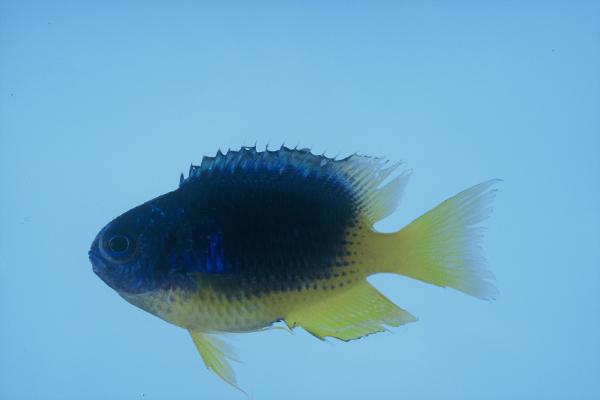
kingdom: Animalia
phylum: Chordata
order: Perciformes
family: Pomacentridae
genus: Pomacentrus
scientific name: Pomacentrus caeruleus
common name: Caerulean damsel
